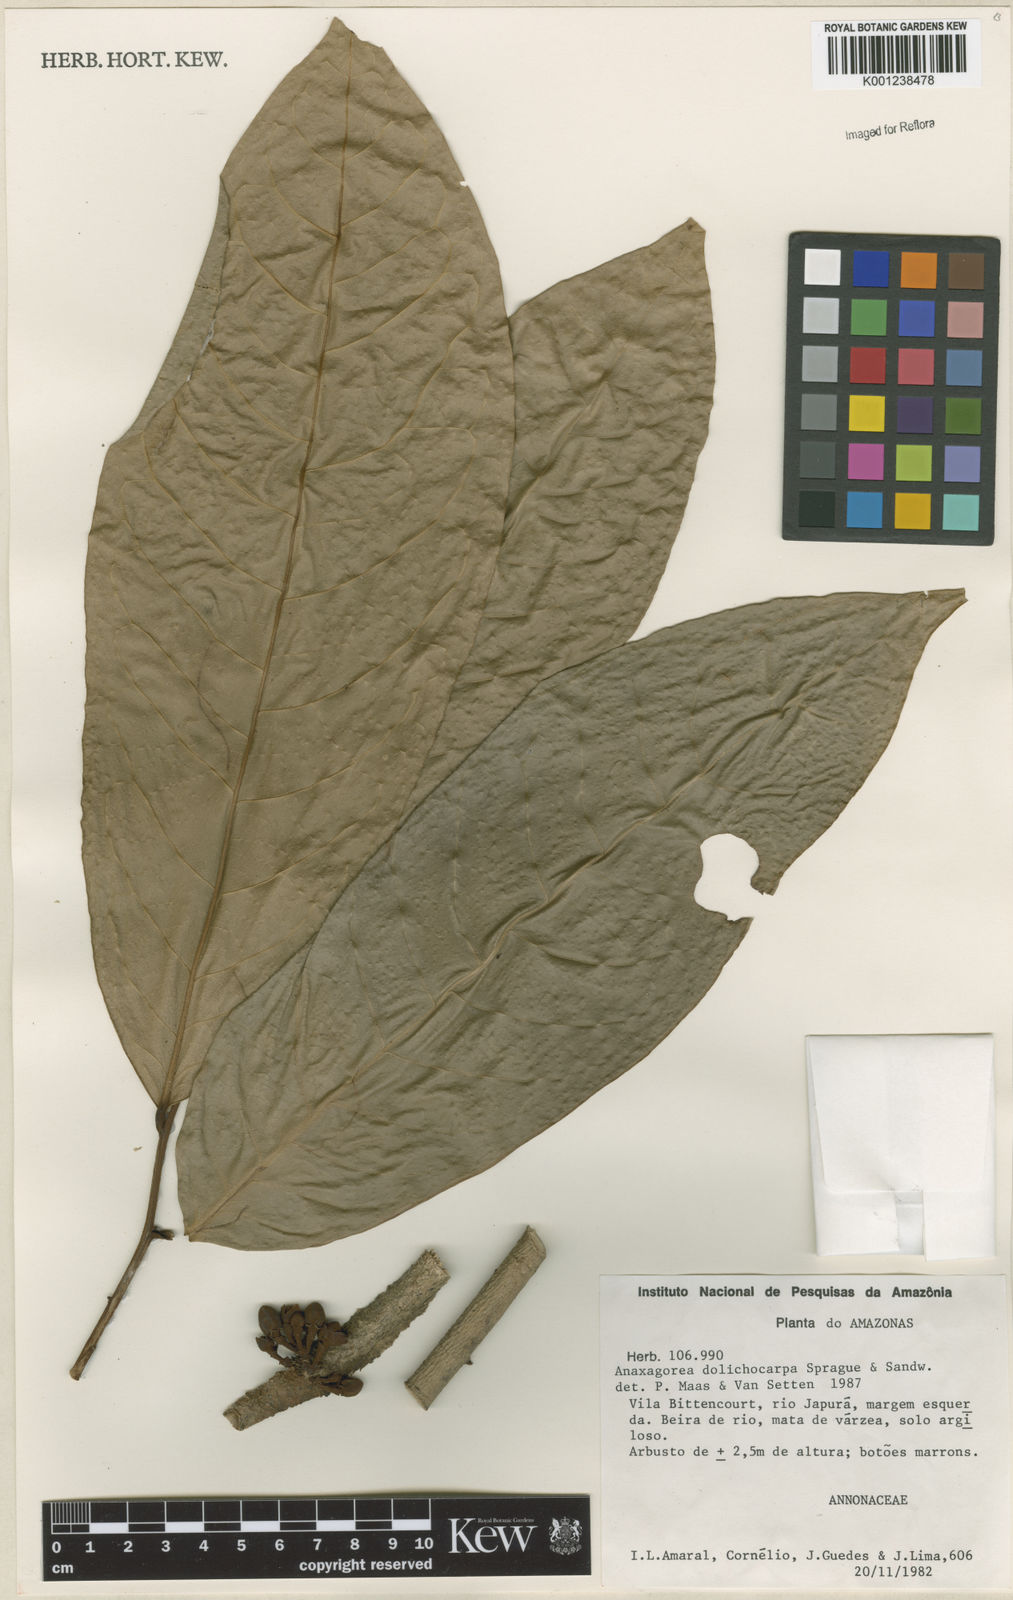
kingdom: Plantae
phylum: Tracheophyta
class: Magnoliopsida
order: Magnoliales
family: Annonaceae
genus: Anaxagorea
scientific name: Anaxagorea dolichocarpa
